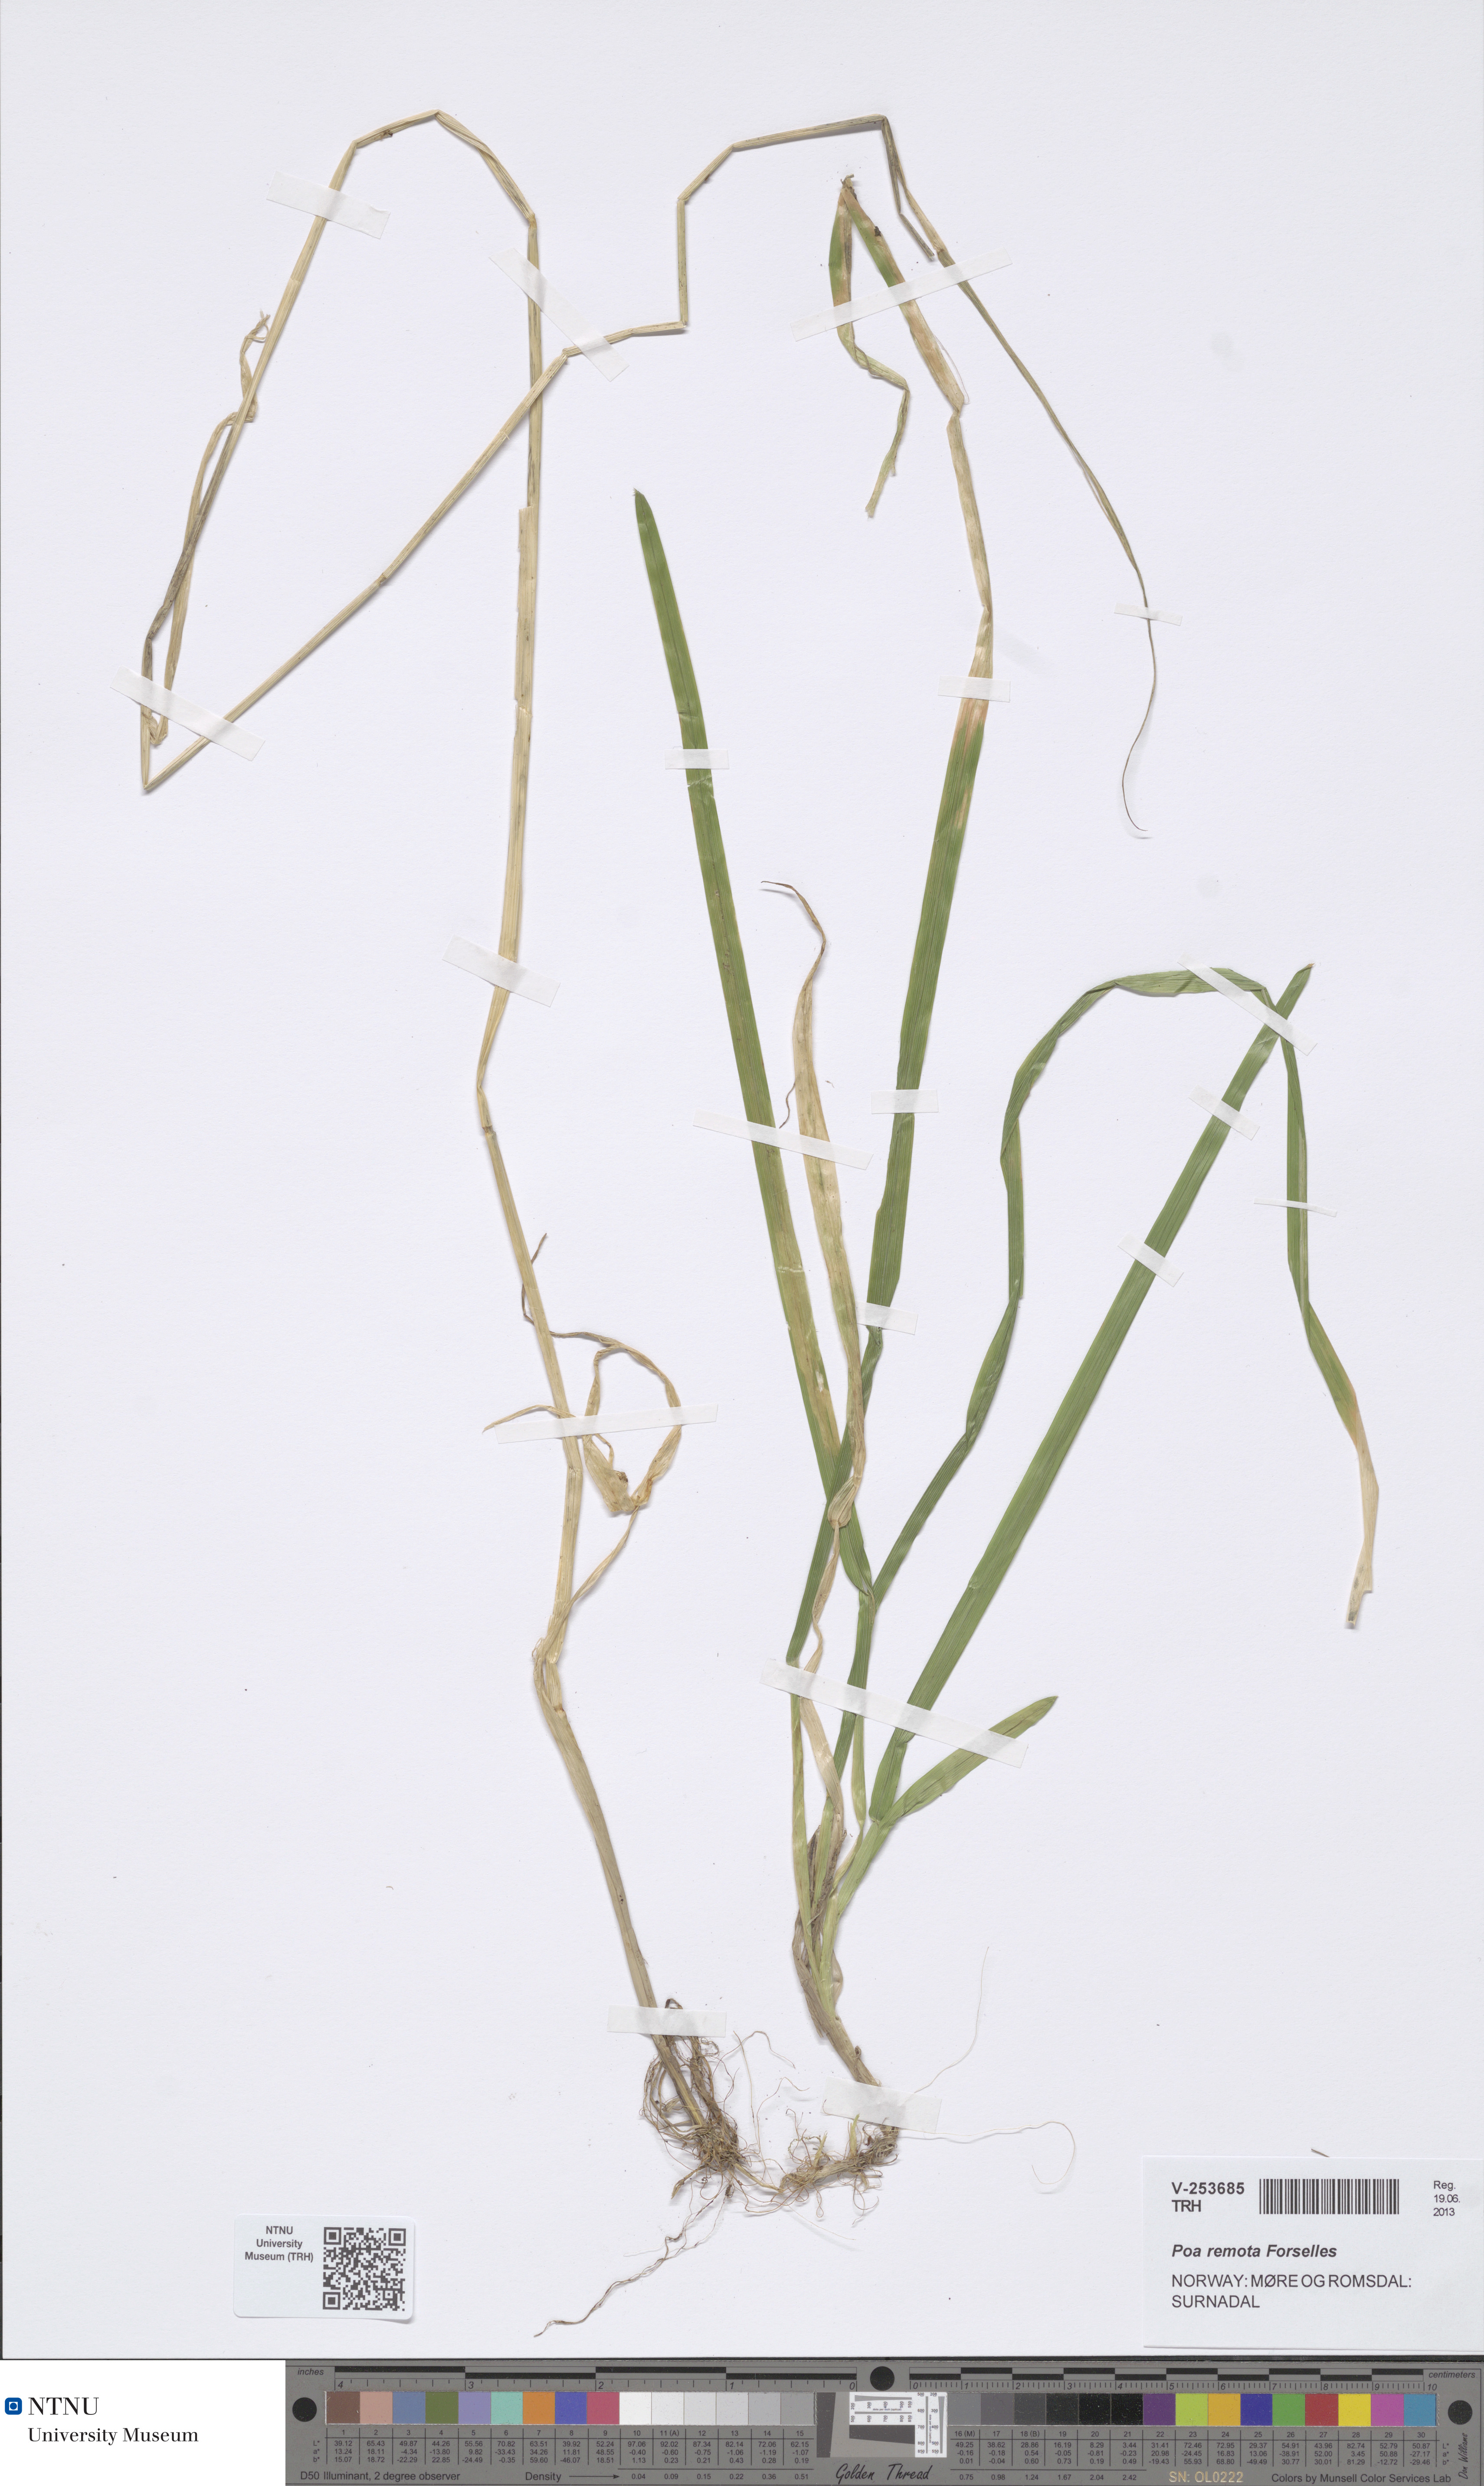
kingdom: Plantae
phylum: Tracheophyta
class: Liliopsida
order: Poales
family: Poaceae
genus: Poa
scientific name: Poa remota
